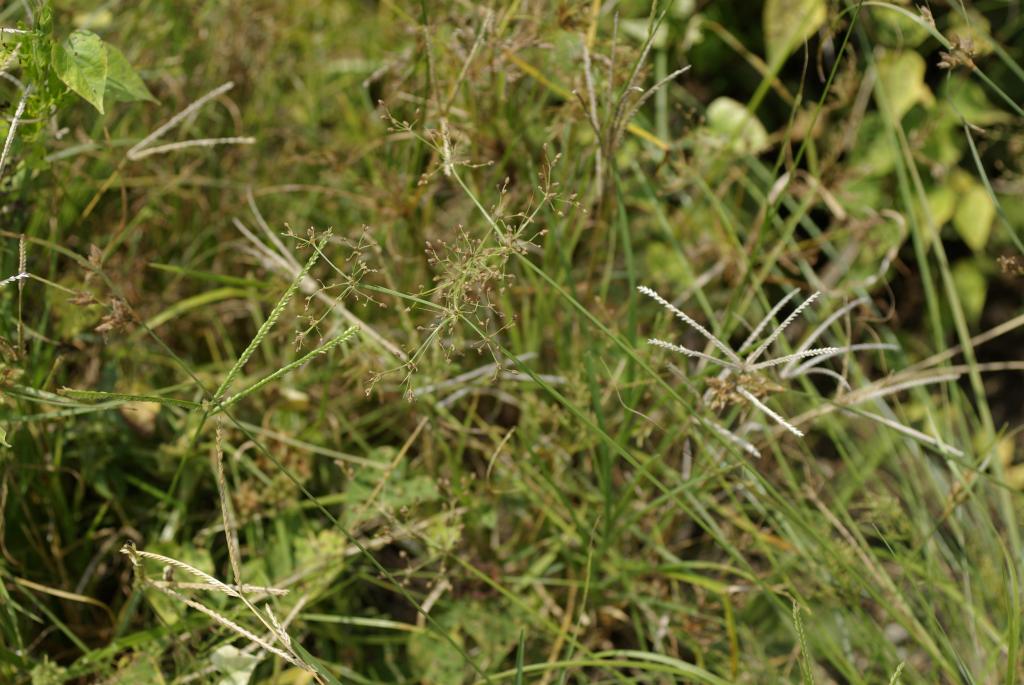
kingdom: Plantae
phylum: Tracheophyta
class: Liliopsida
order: Poales
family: Cyperaceae
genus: Fimbristylis
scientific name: Fimbristylis littoralis
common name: Fimbry
